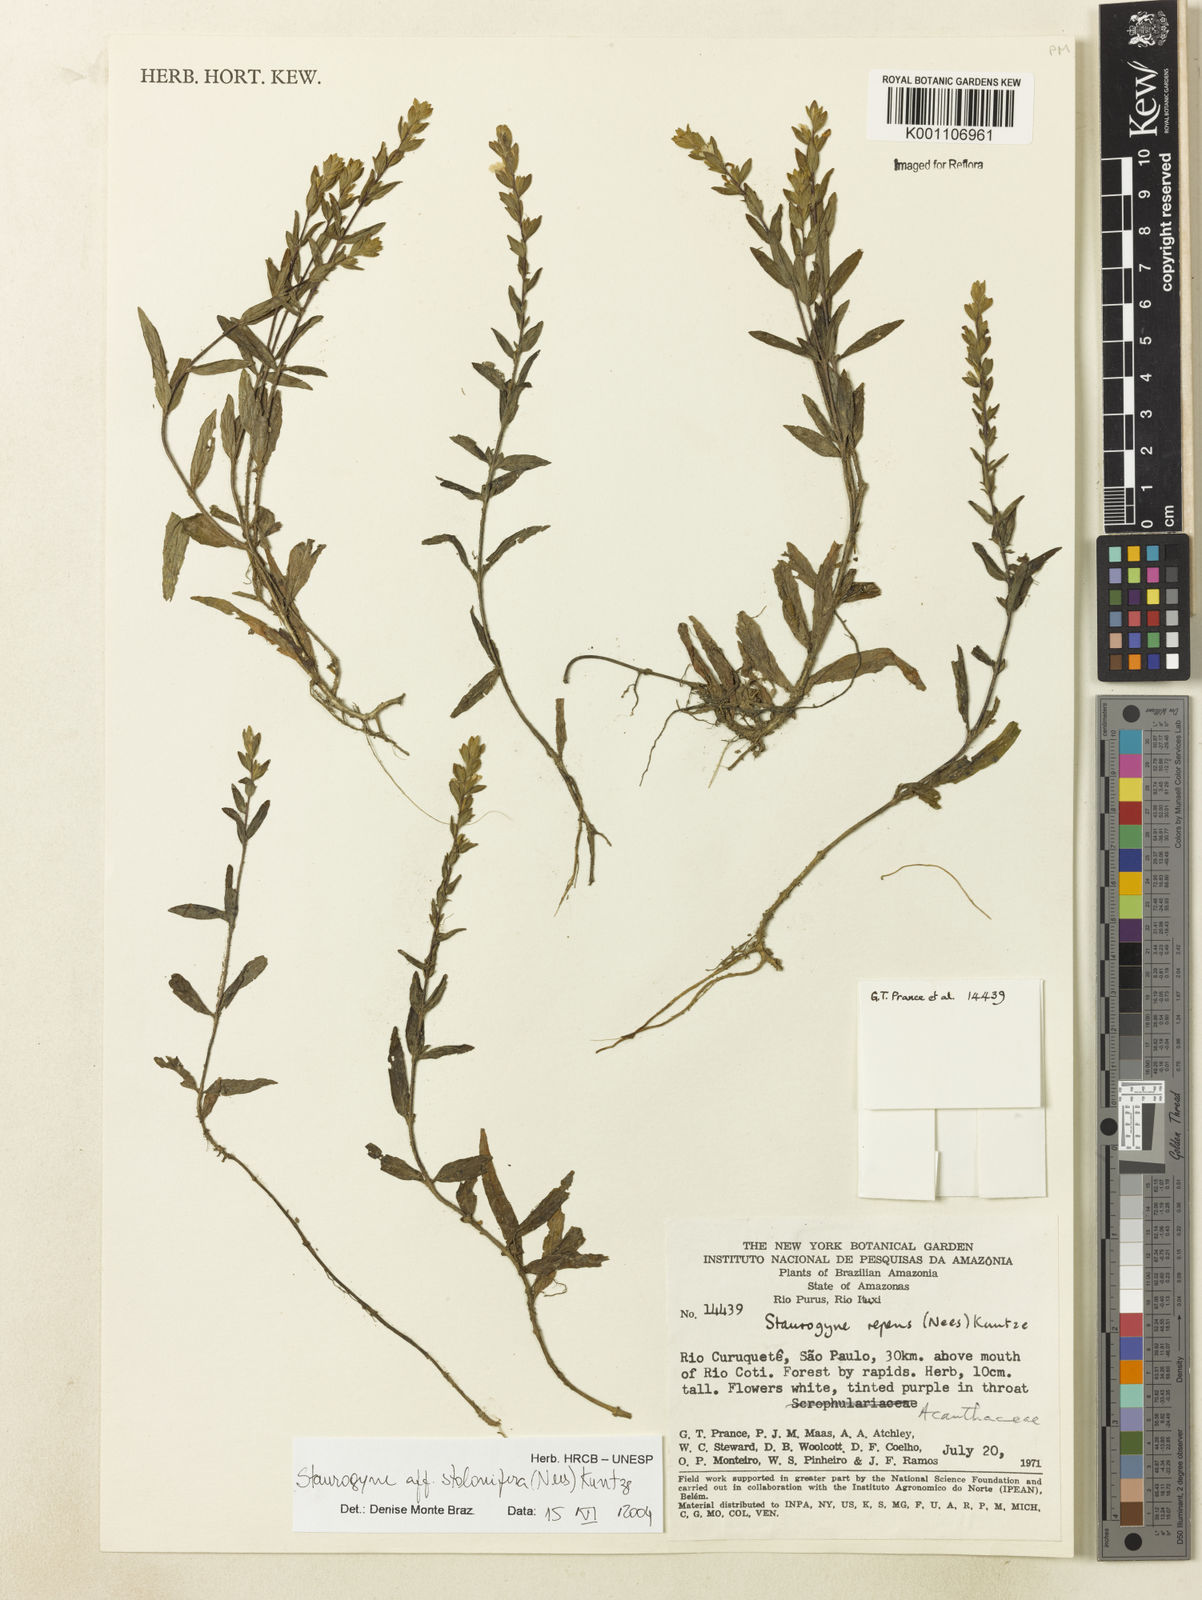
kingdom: Plantae
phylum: Tracheophyta
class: Magnoliopsida
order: Lamiales
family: Acanthaceae
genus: Staurogyne
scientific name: Staurogyne stolonifera
